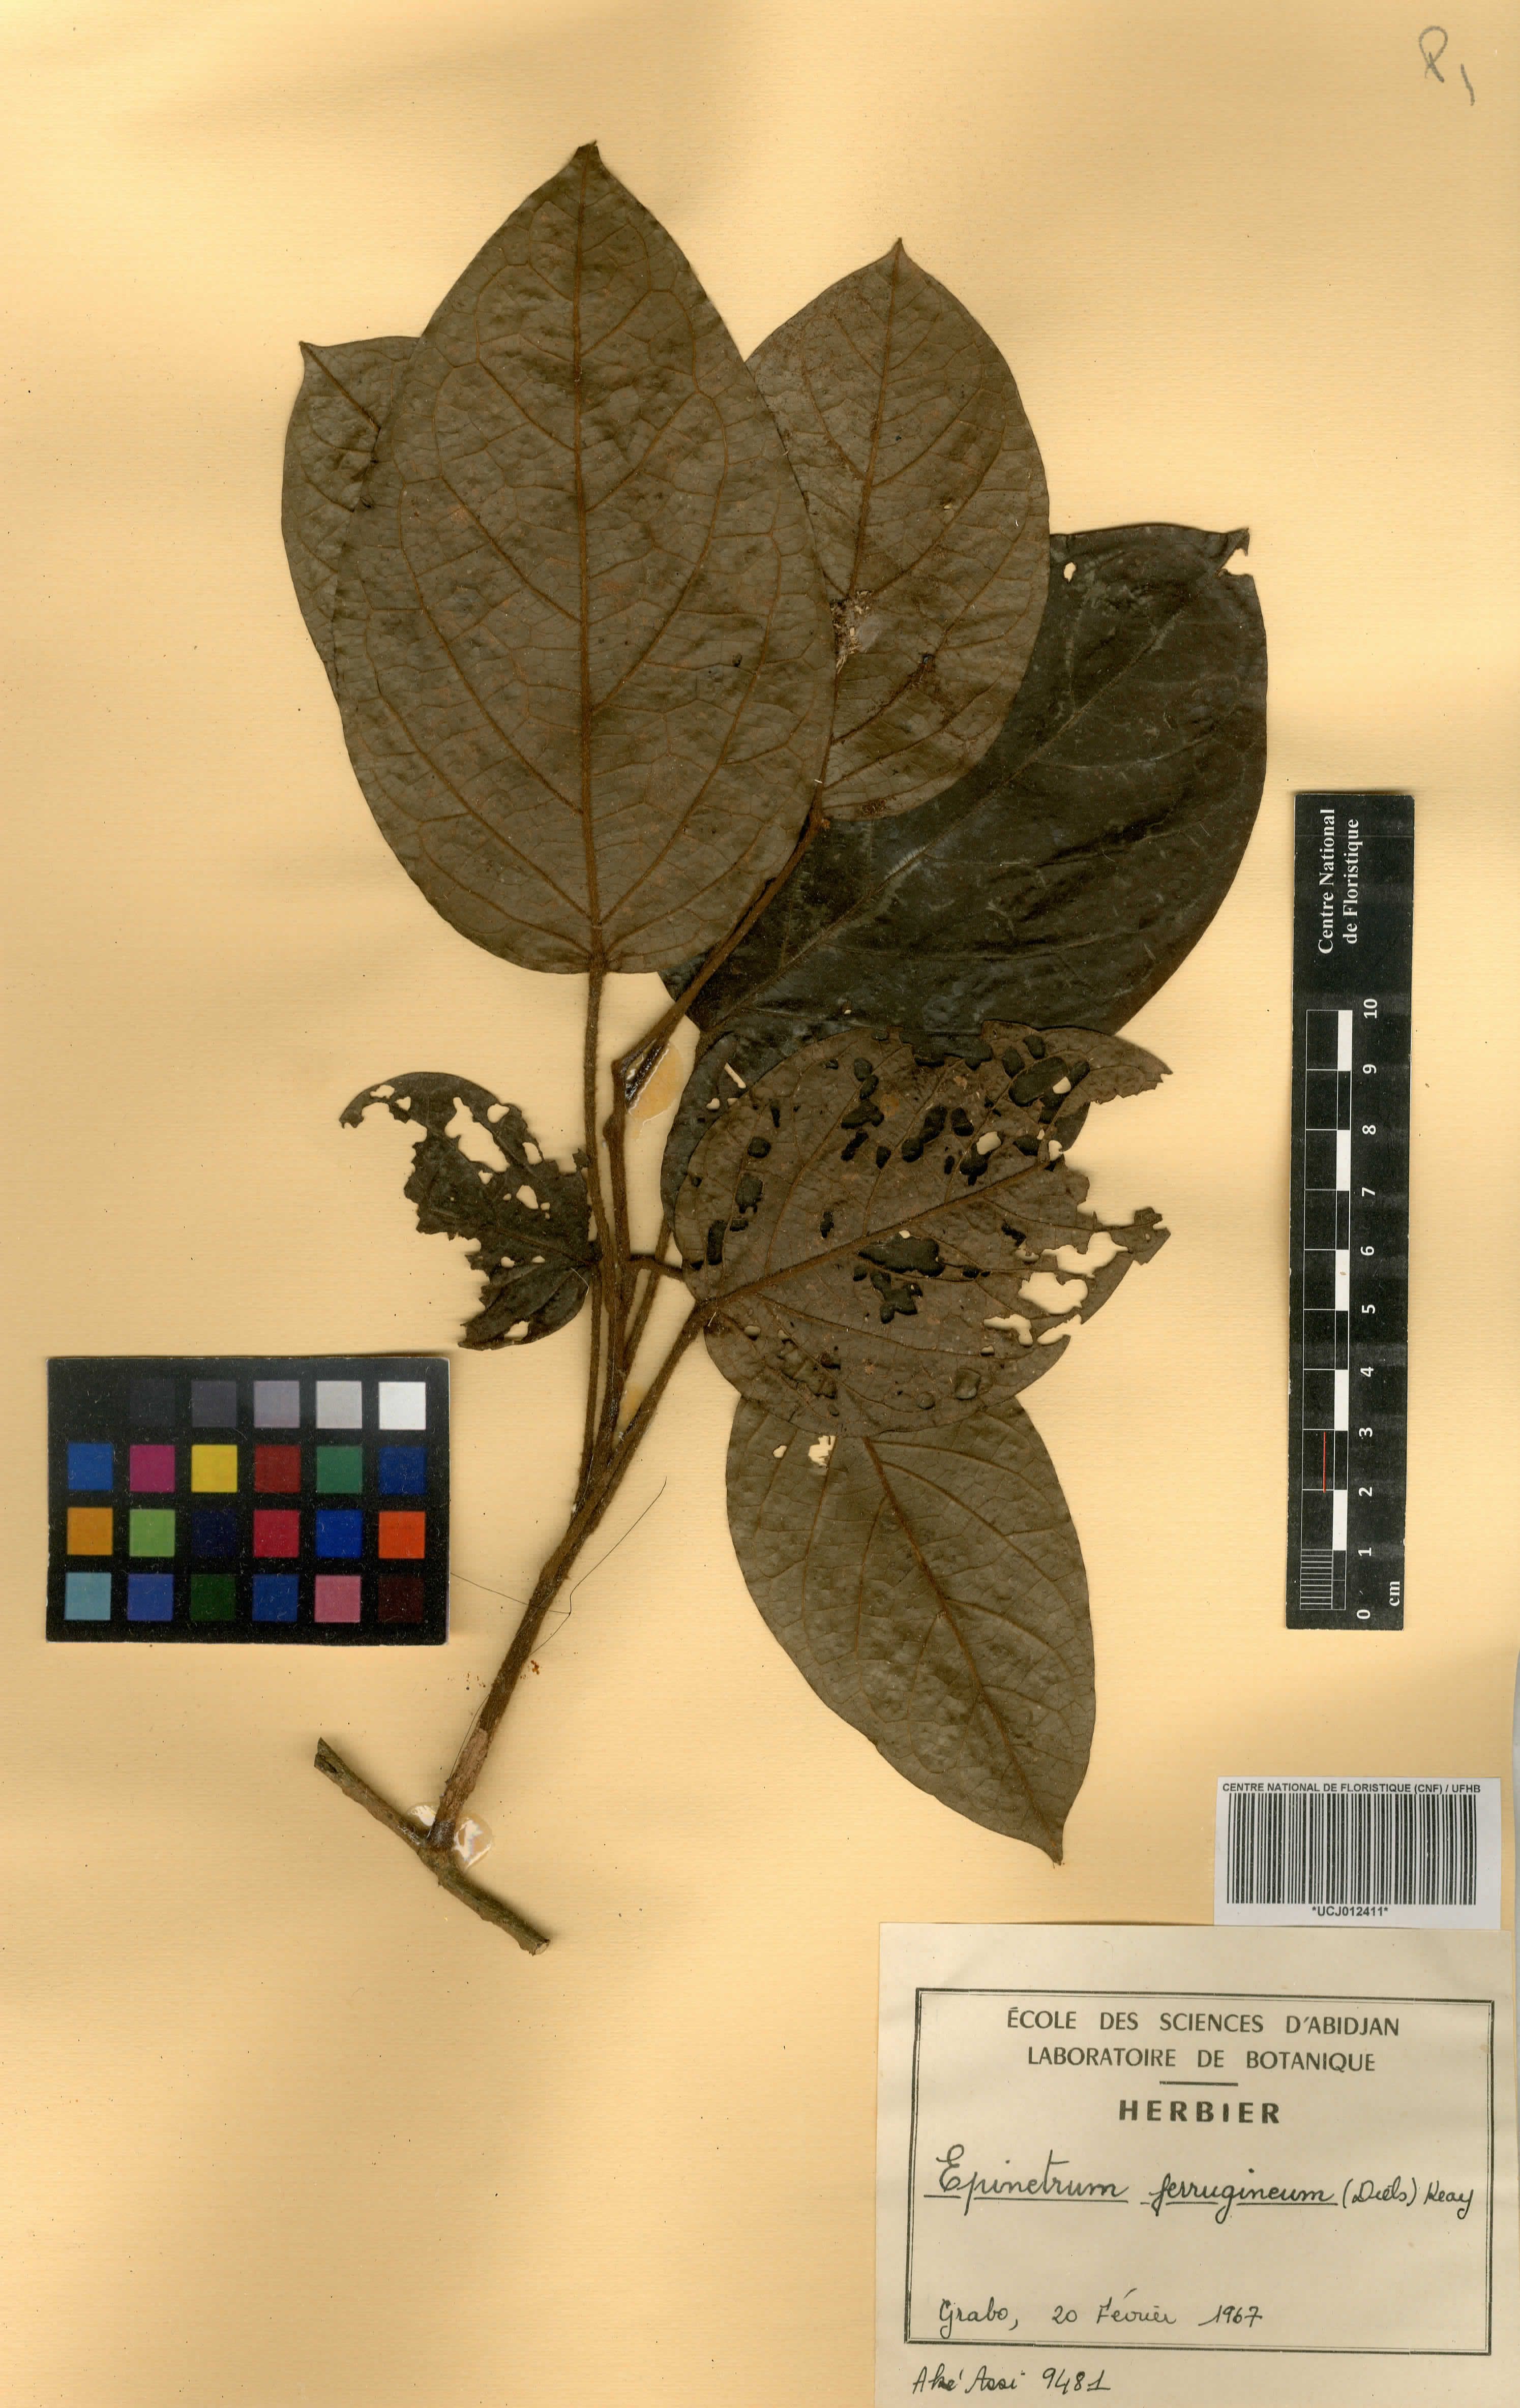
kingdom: Plantae
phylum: Tracheophyta
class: Magnoliopsida
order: Ranunculales
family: Menispermaceae
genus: Albertisia
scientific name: Albertisia ferruginea
